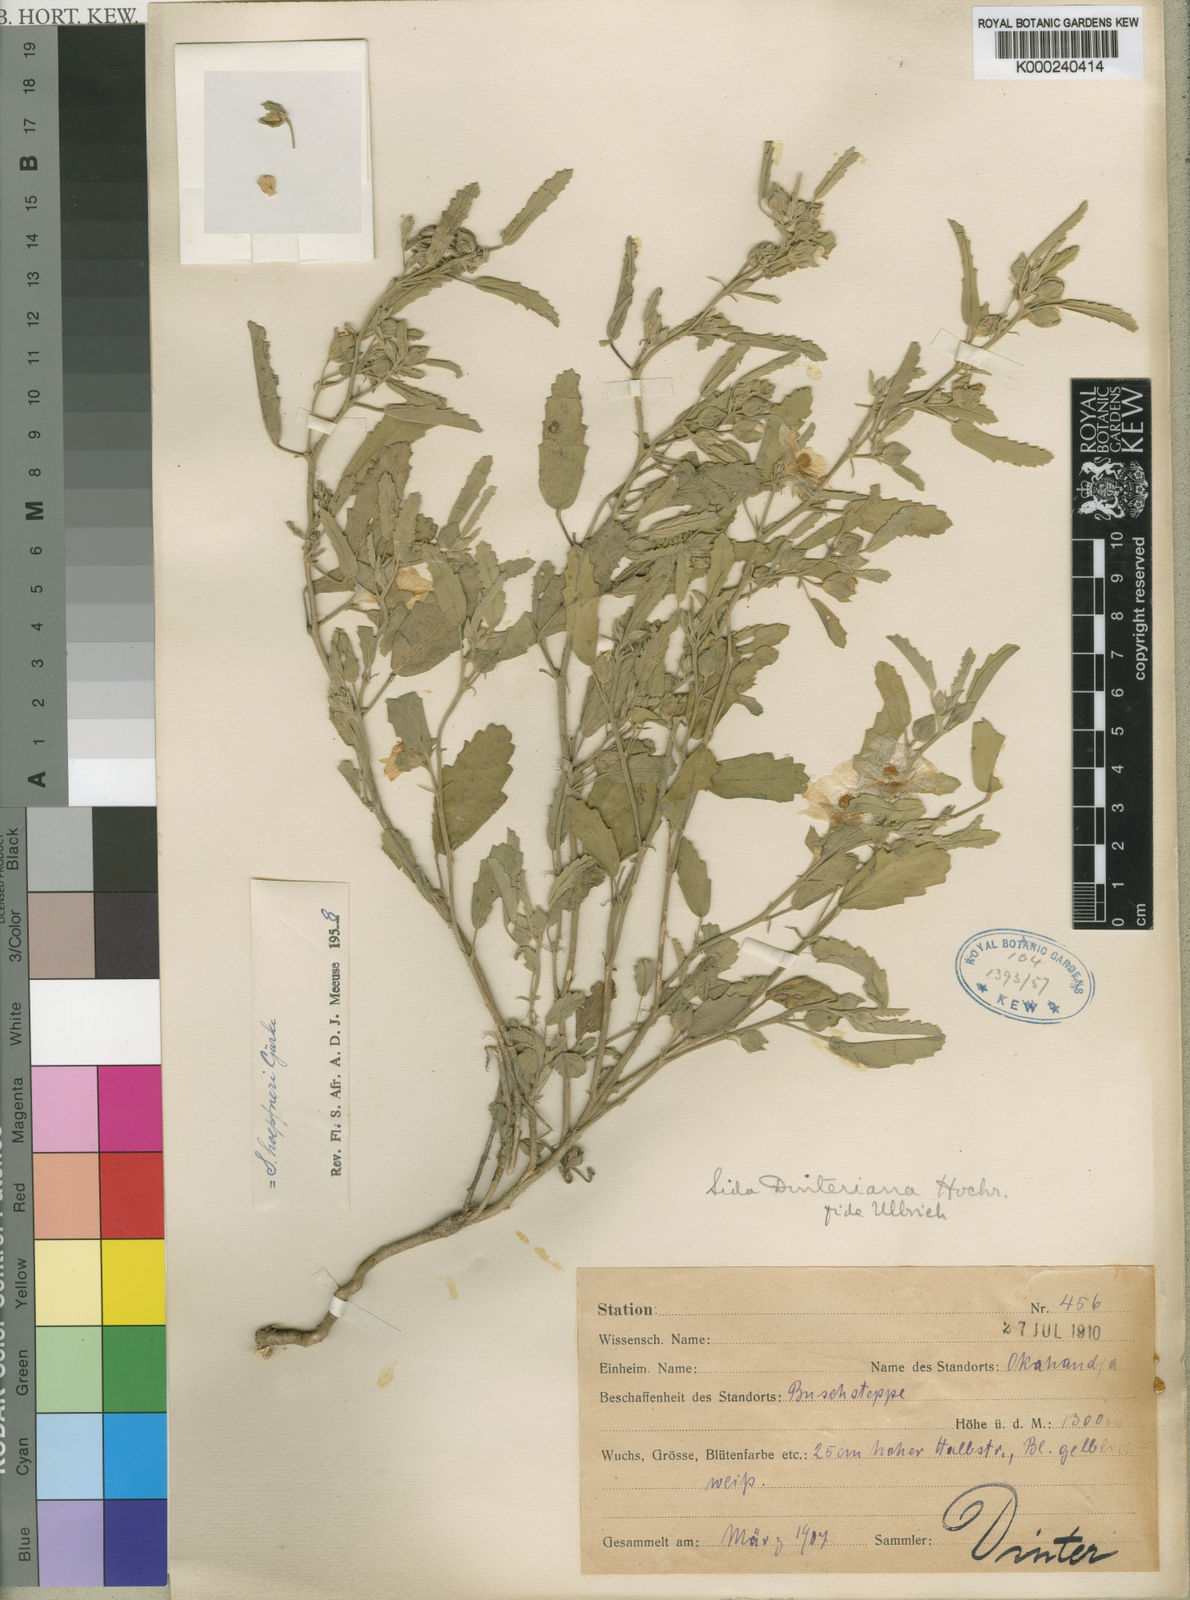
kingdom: Plantae
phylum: Tracheophyta
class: Magnoliopsida
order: Malvales
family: Malvaceae
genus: Sida
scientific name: Sida
